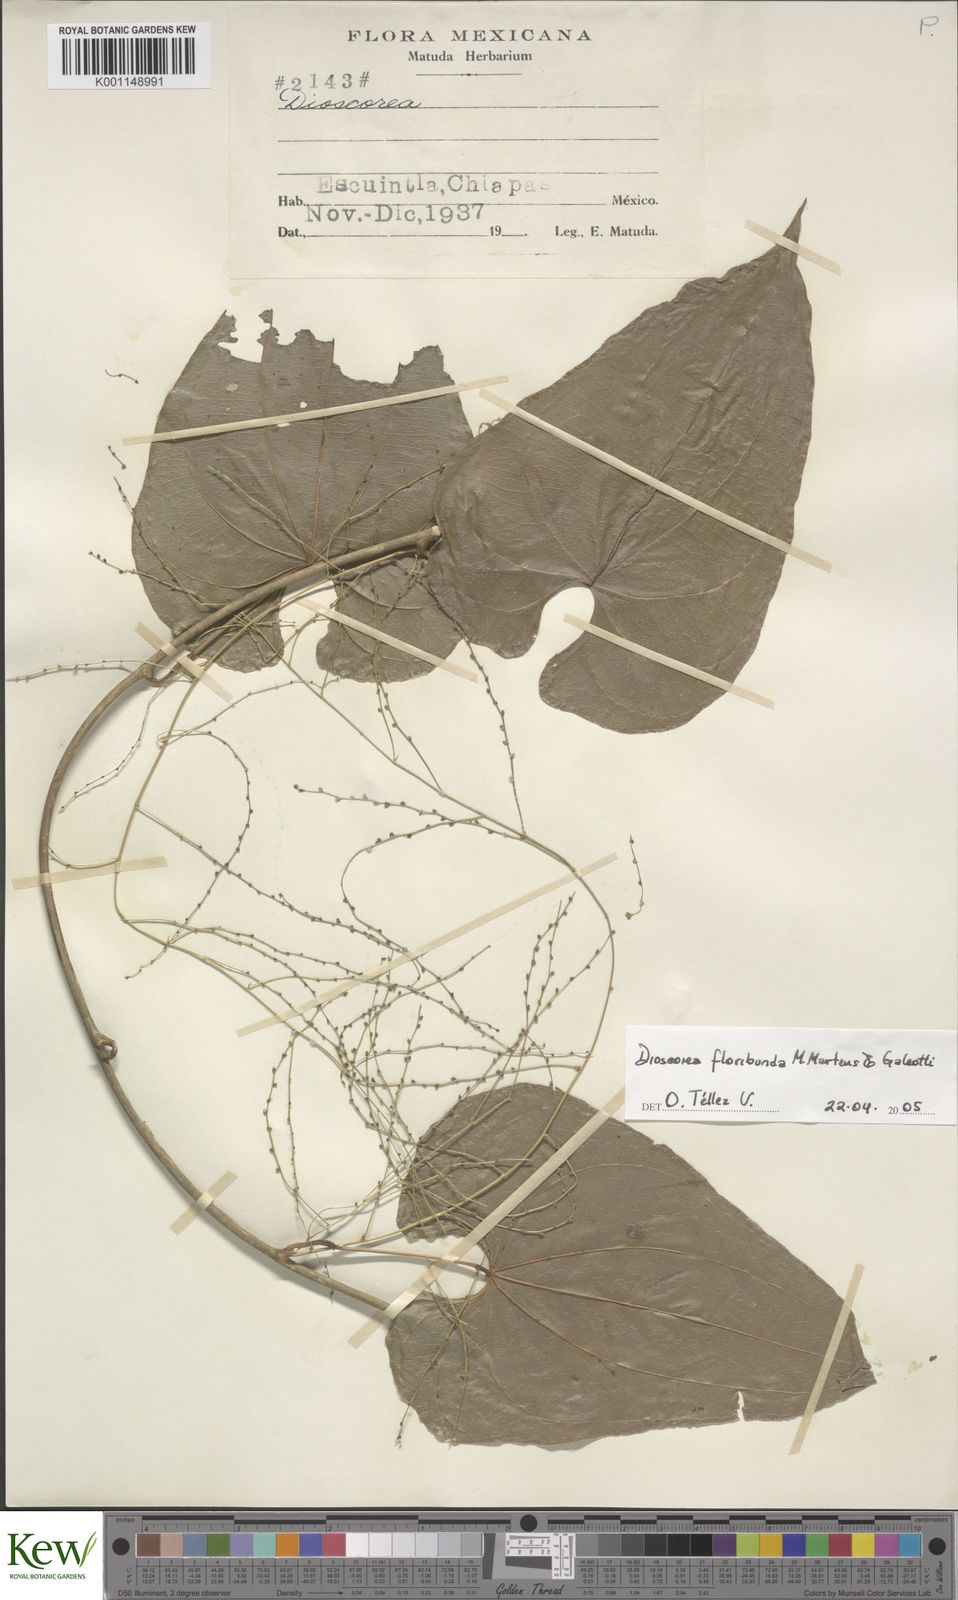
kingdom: Plantae
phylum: Tracheophyta
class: Liliopsida
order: Dioscoreales
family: Dioscoreaceae
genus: Dioscorea
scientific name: Dioscorea floribunda
